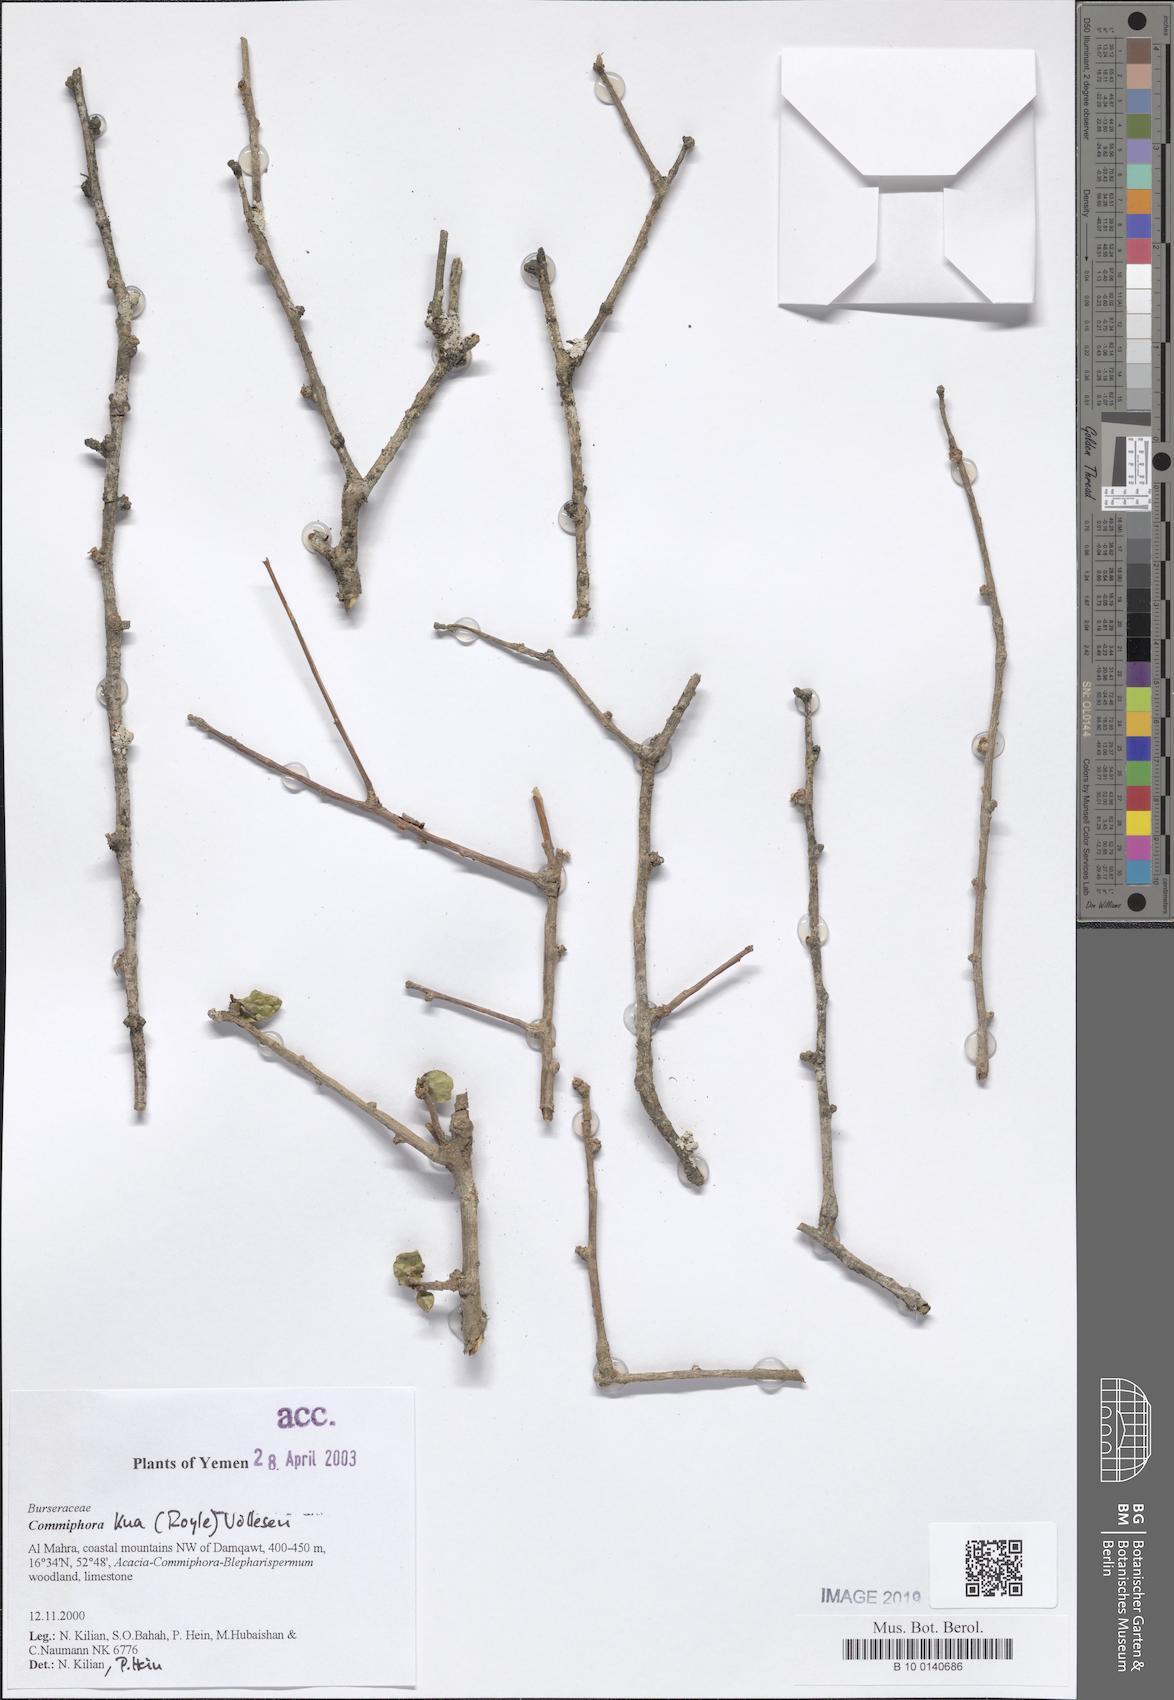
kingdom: Plantae
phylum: Tracheophyta
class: Magnoliopsida
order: Sapindales
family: Burseraceae
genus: Commiphora
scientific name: Commiphora kua
